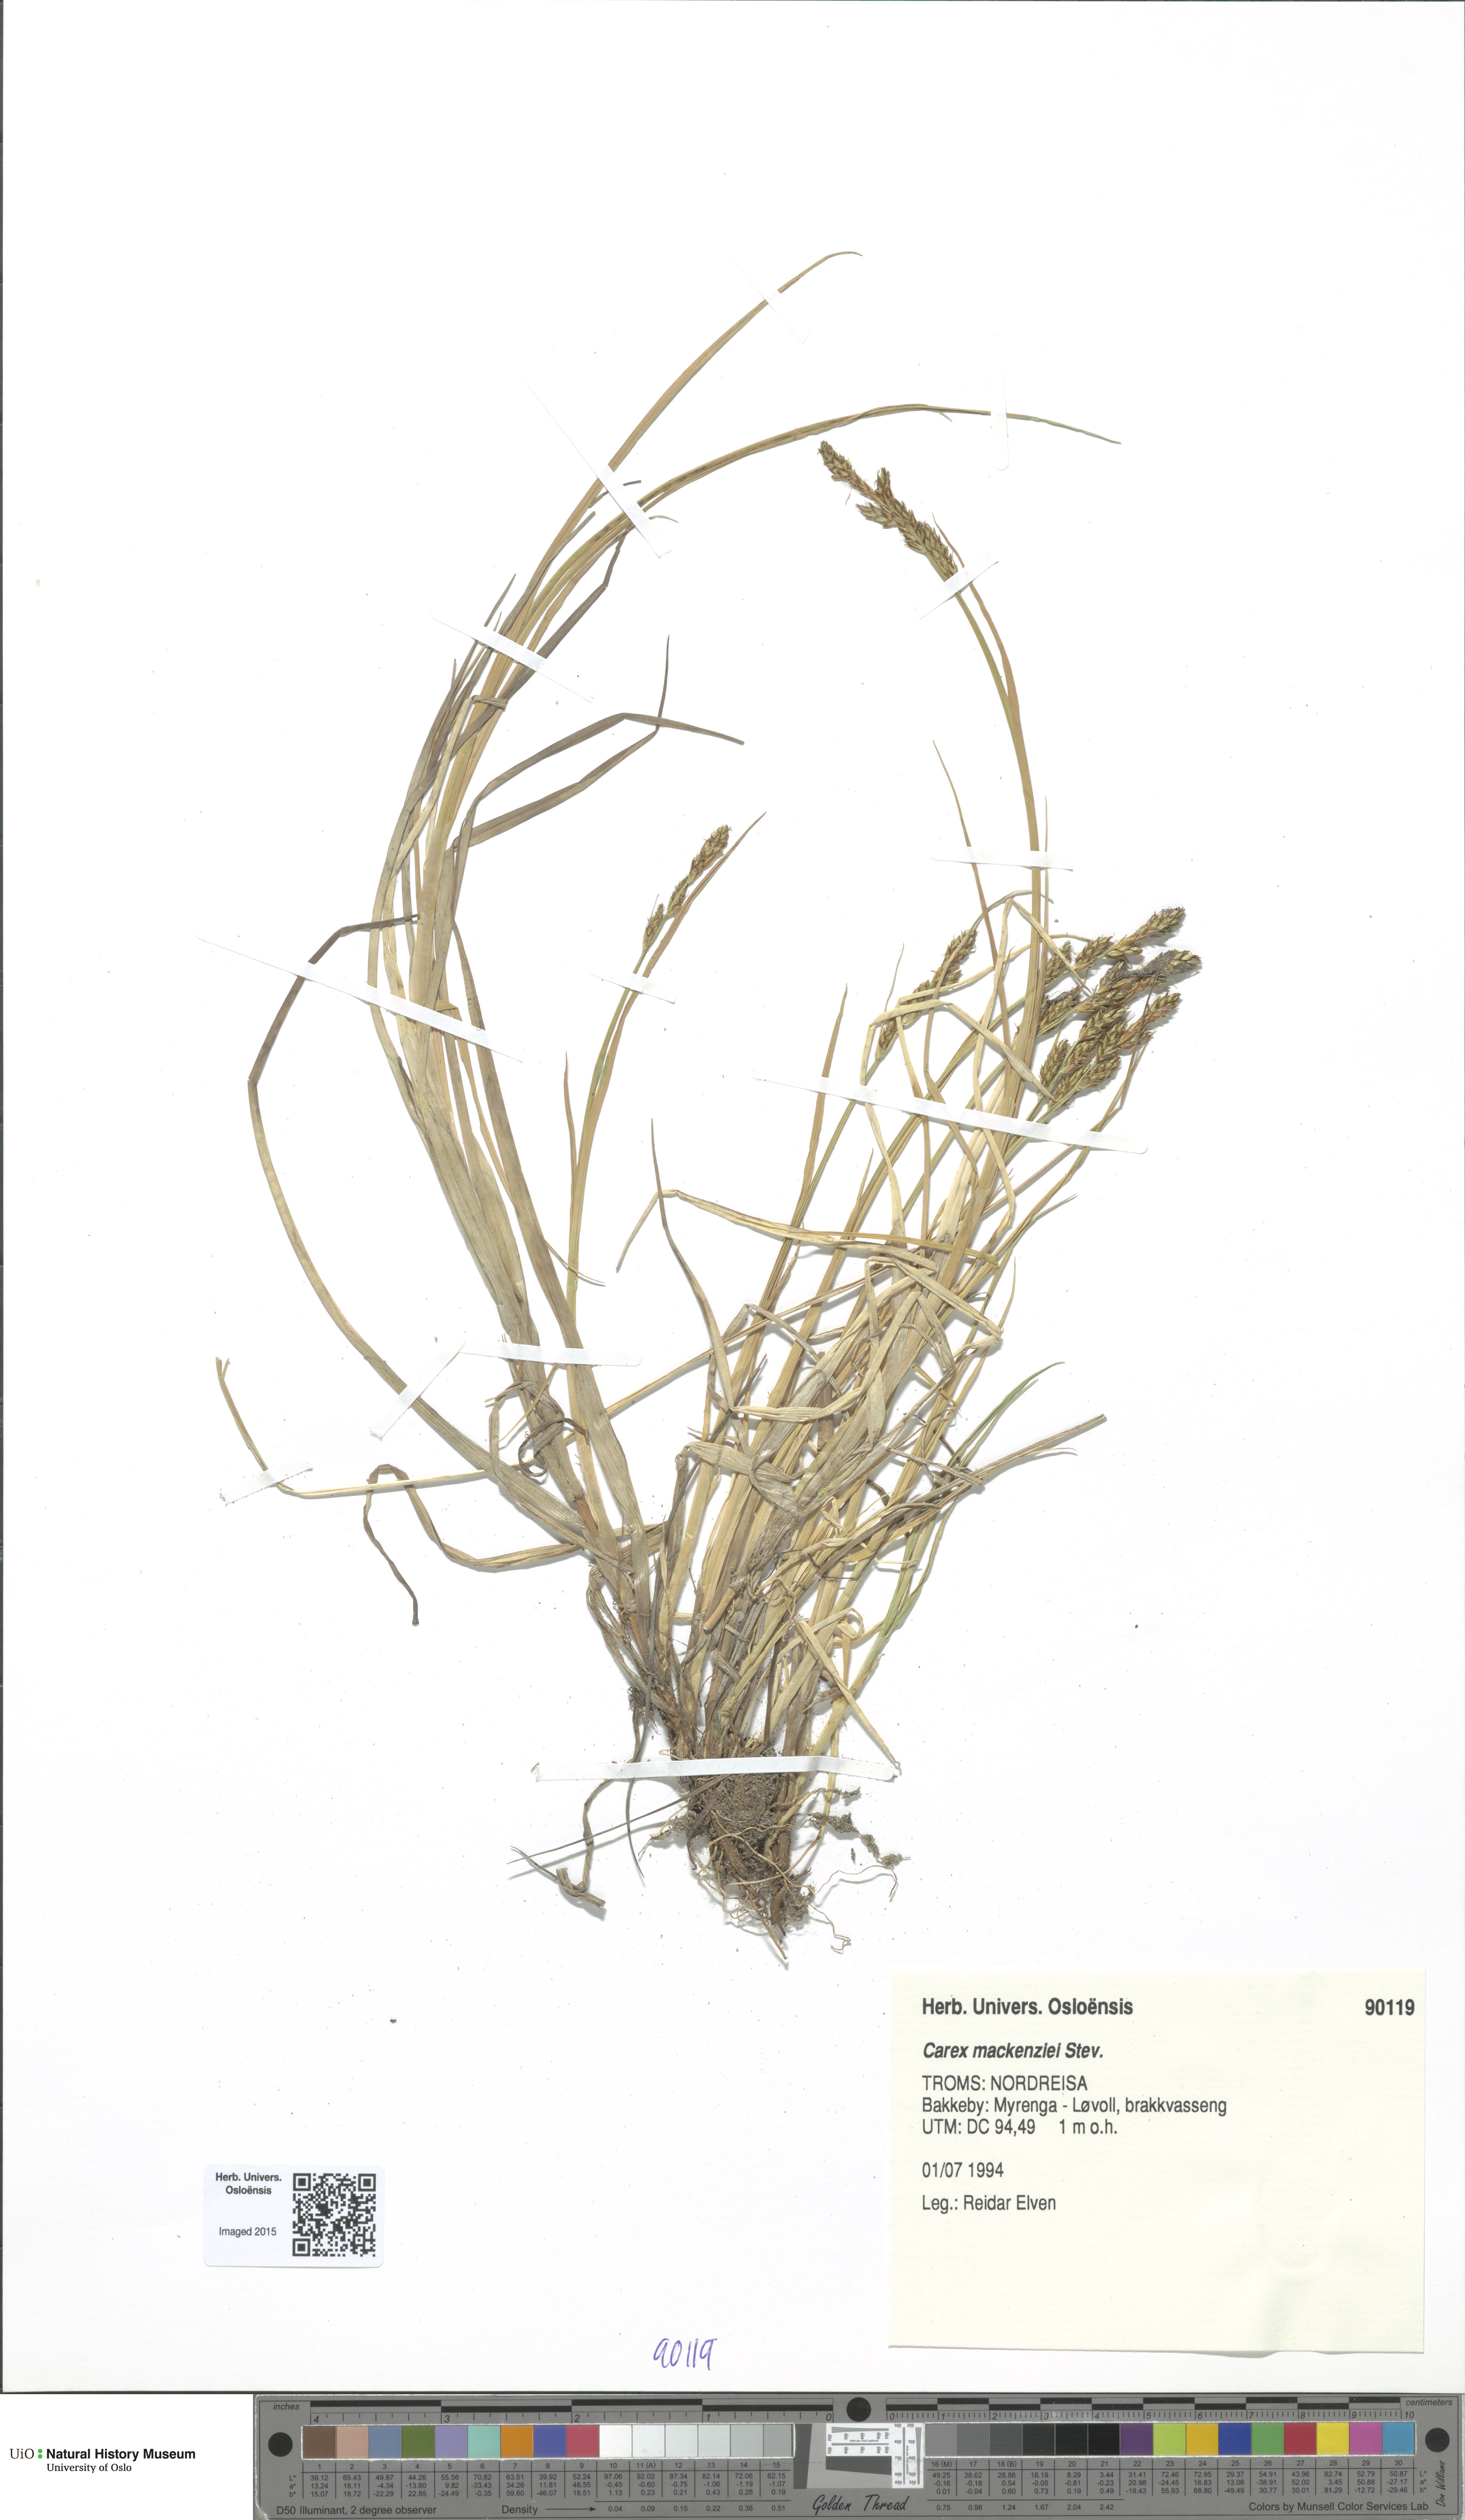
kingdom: Plantae
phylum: Tracheophyta
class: Liliopsida
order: Poales
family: Cyperaceae
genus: Carex
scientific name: Carex mackenziei
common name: Mackenzie's sedge
